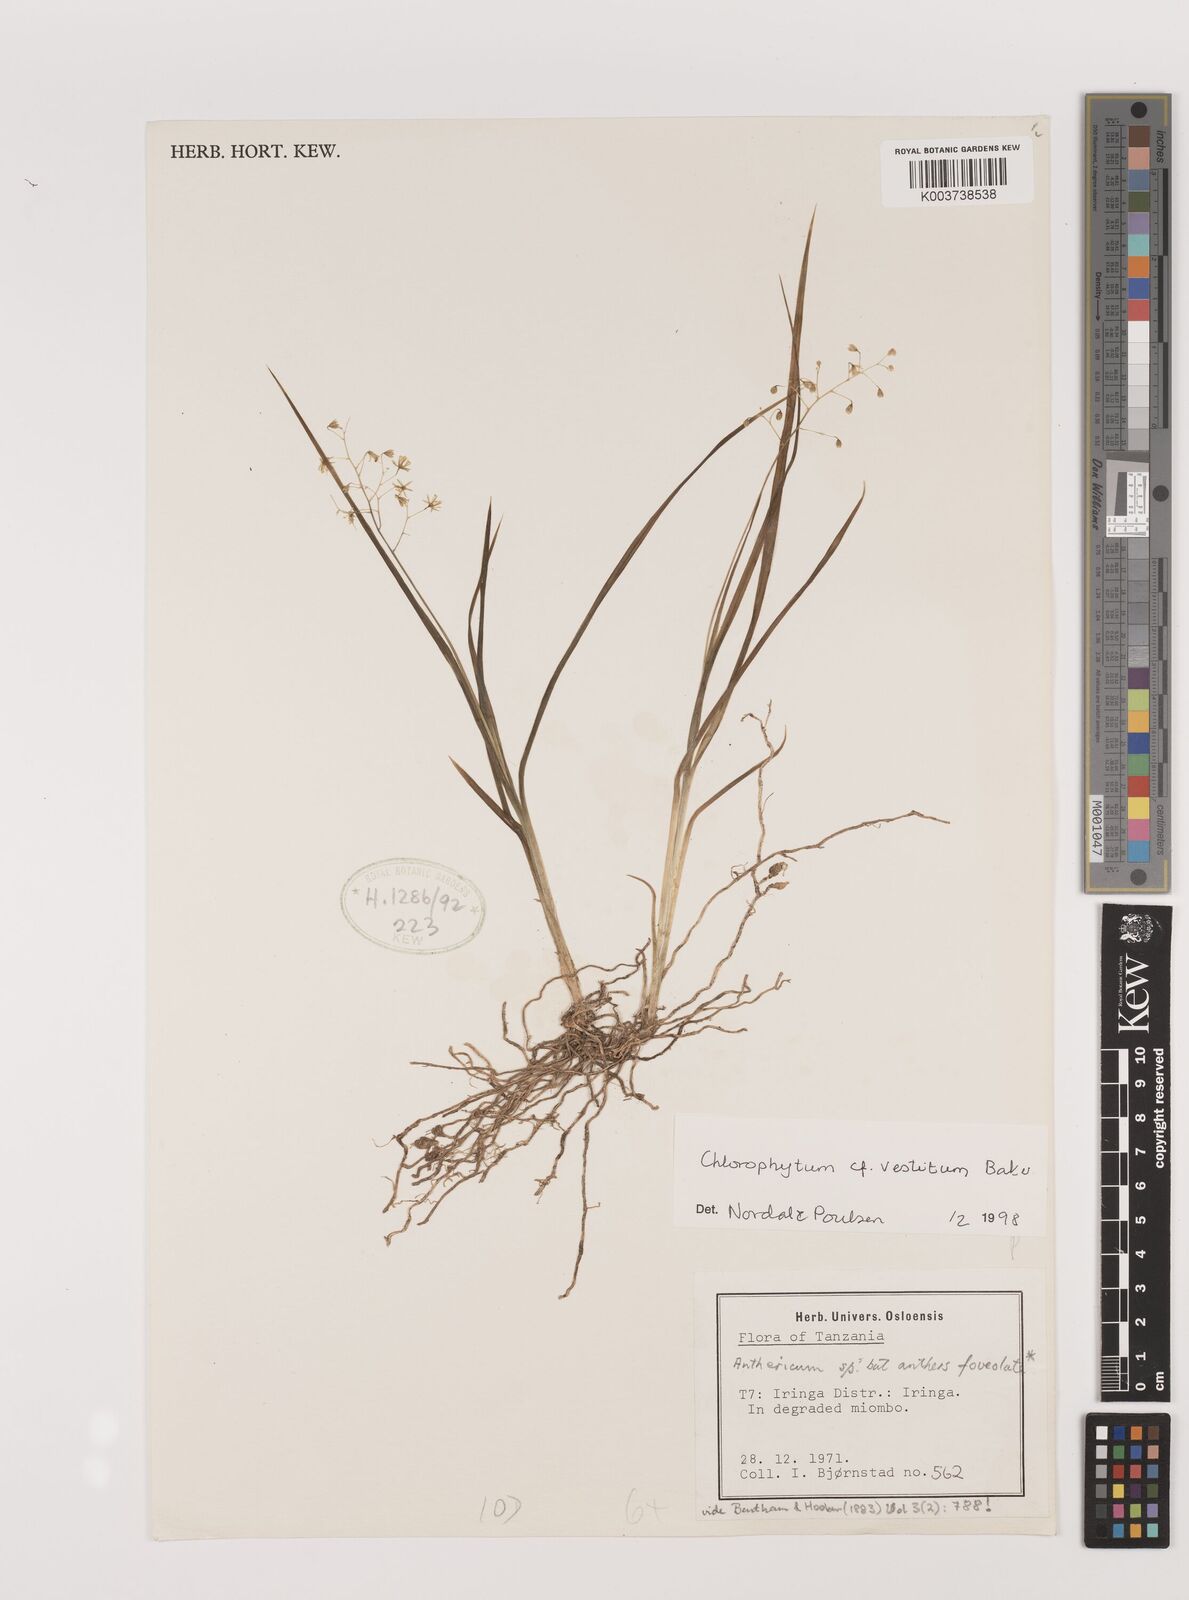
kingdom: Plantae
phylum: Tracheophyta
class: Liliopsida
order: Asparagales
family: Asparagaceae
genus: Chlorophytum
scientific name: Chlorophytum vestitum
